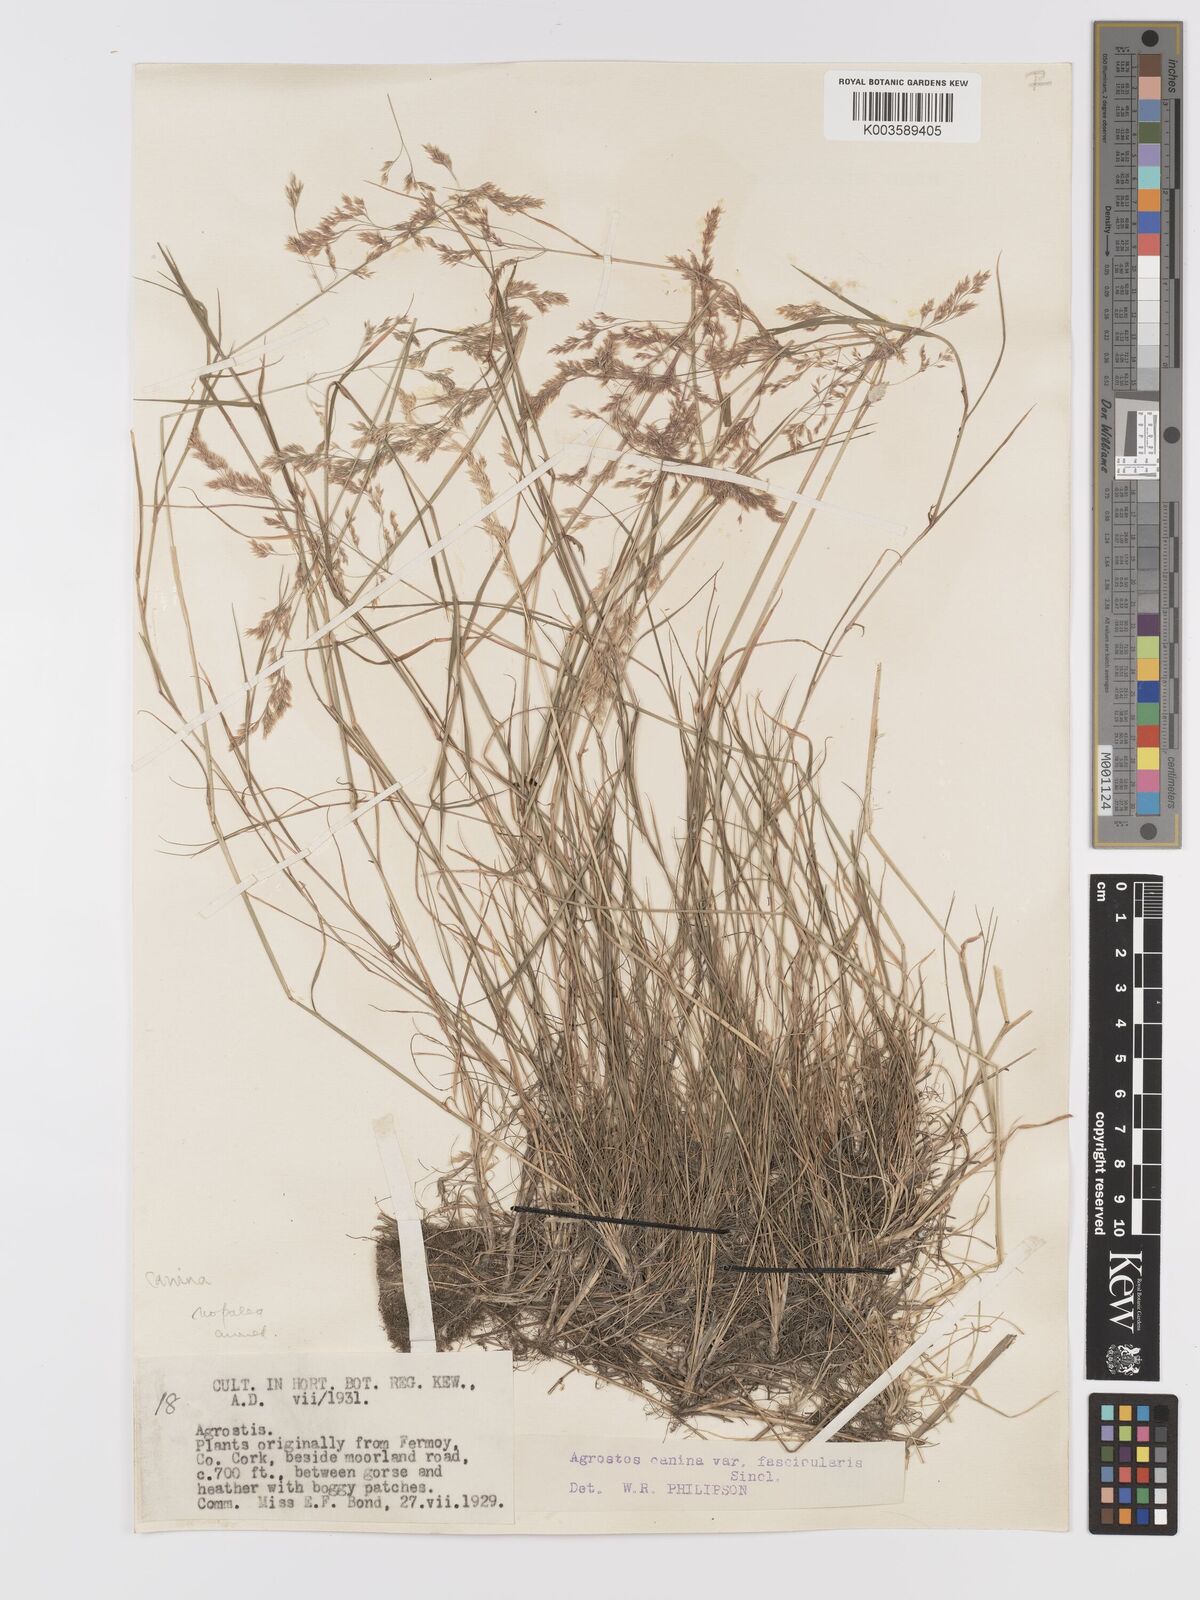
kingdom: Plantae
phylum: Tracheophyta
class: Liliopsida
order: Poales
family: Poaceae
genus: Agrostis
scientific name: Agrostis canina
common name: Velvet bent
